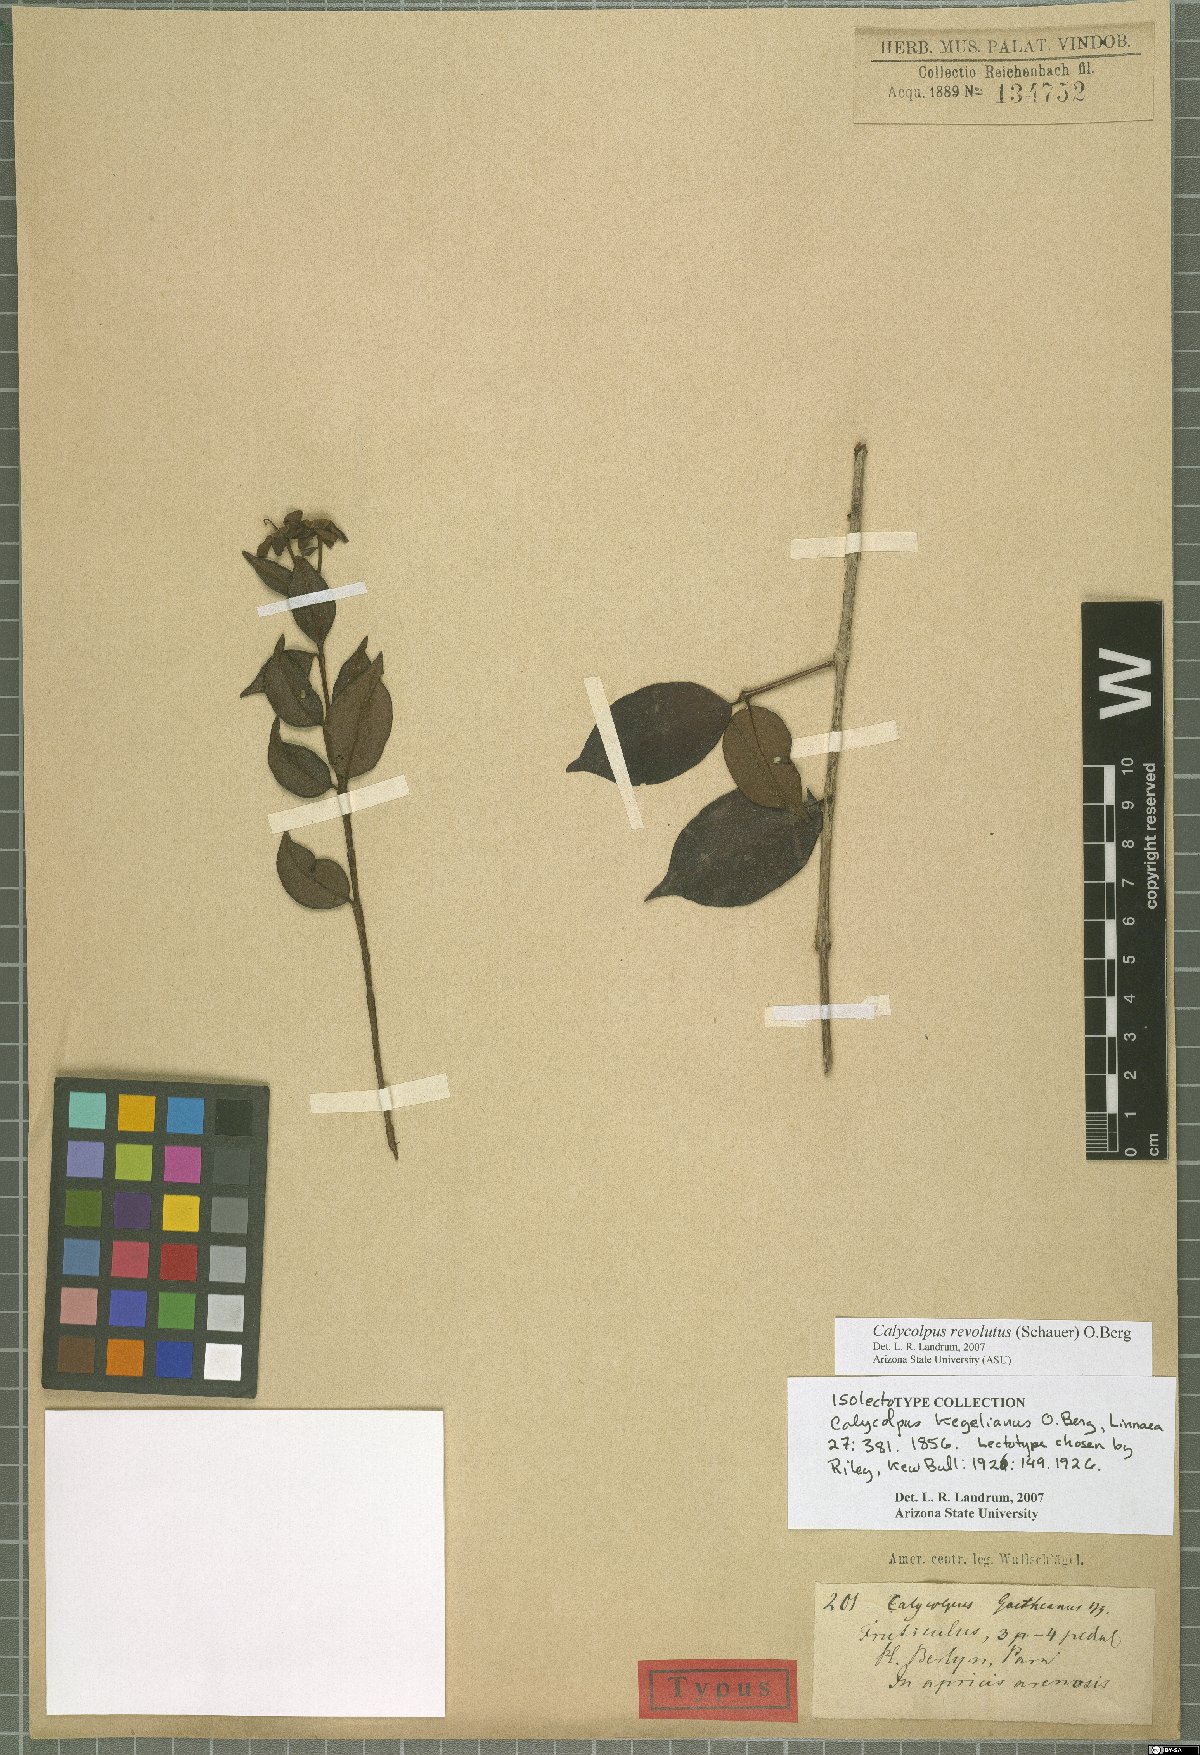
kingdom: Plantae
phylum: Tracheophyta
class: Magnoliopsida
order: Myrtales
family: Myrtaceae
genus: Calycolpus
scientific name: Calycolpus revolutus
